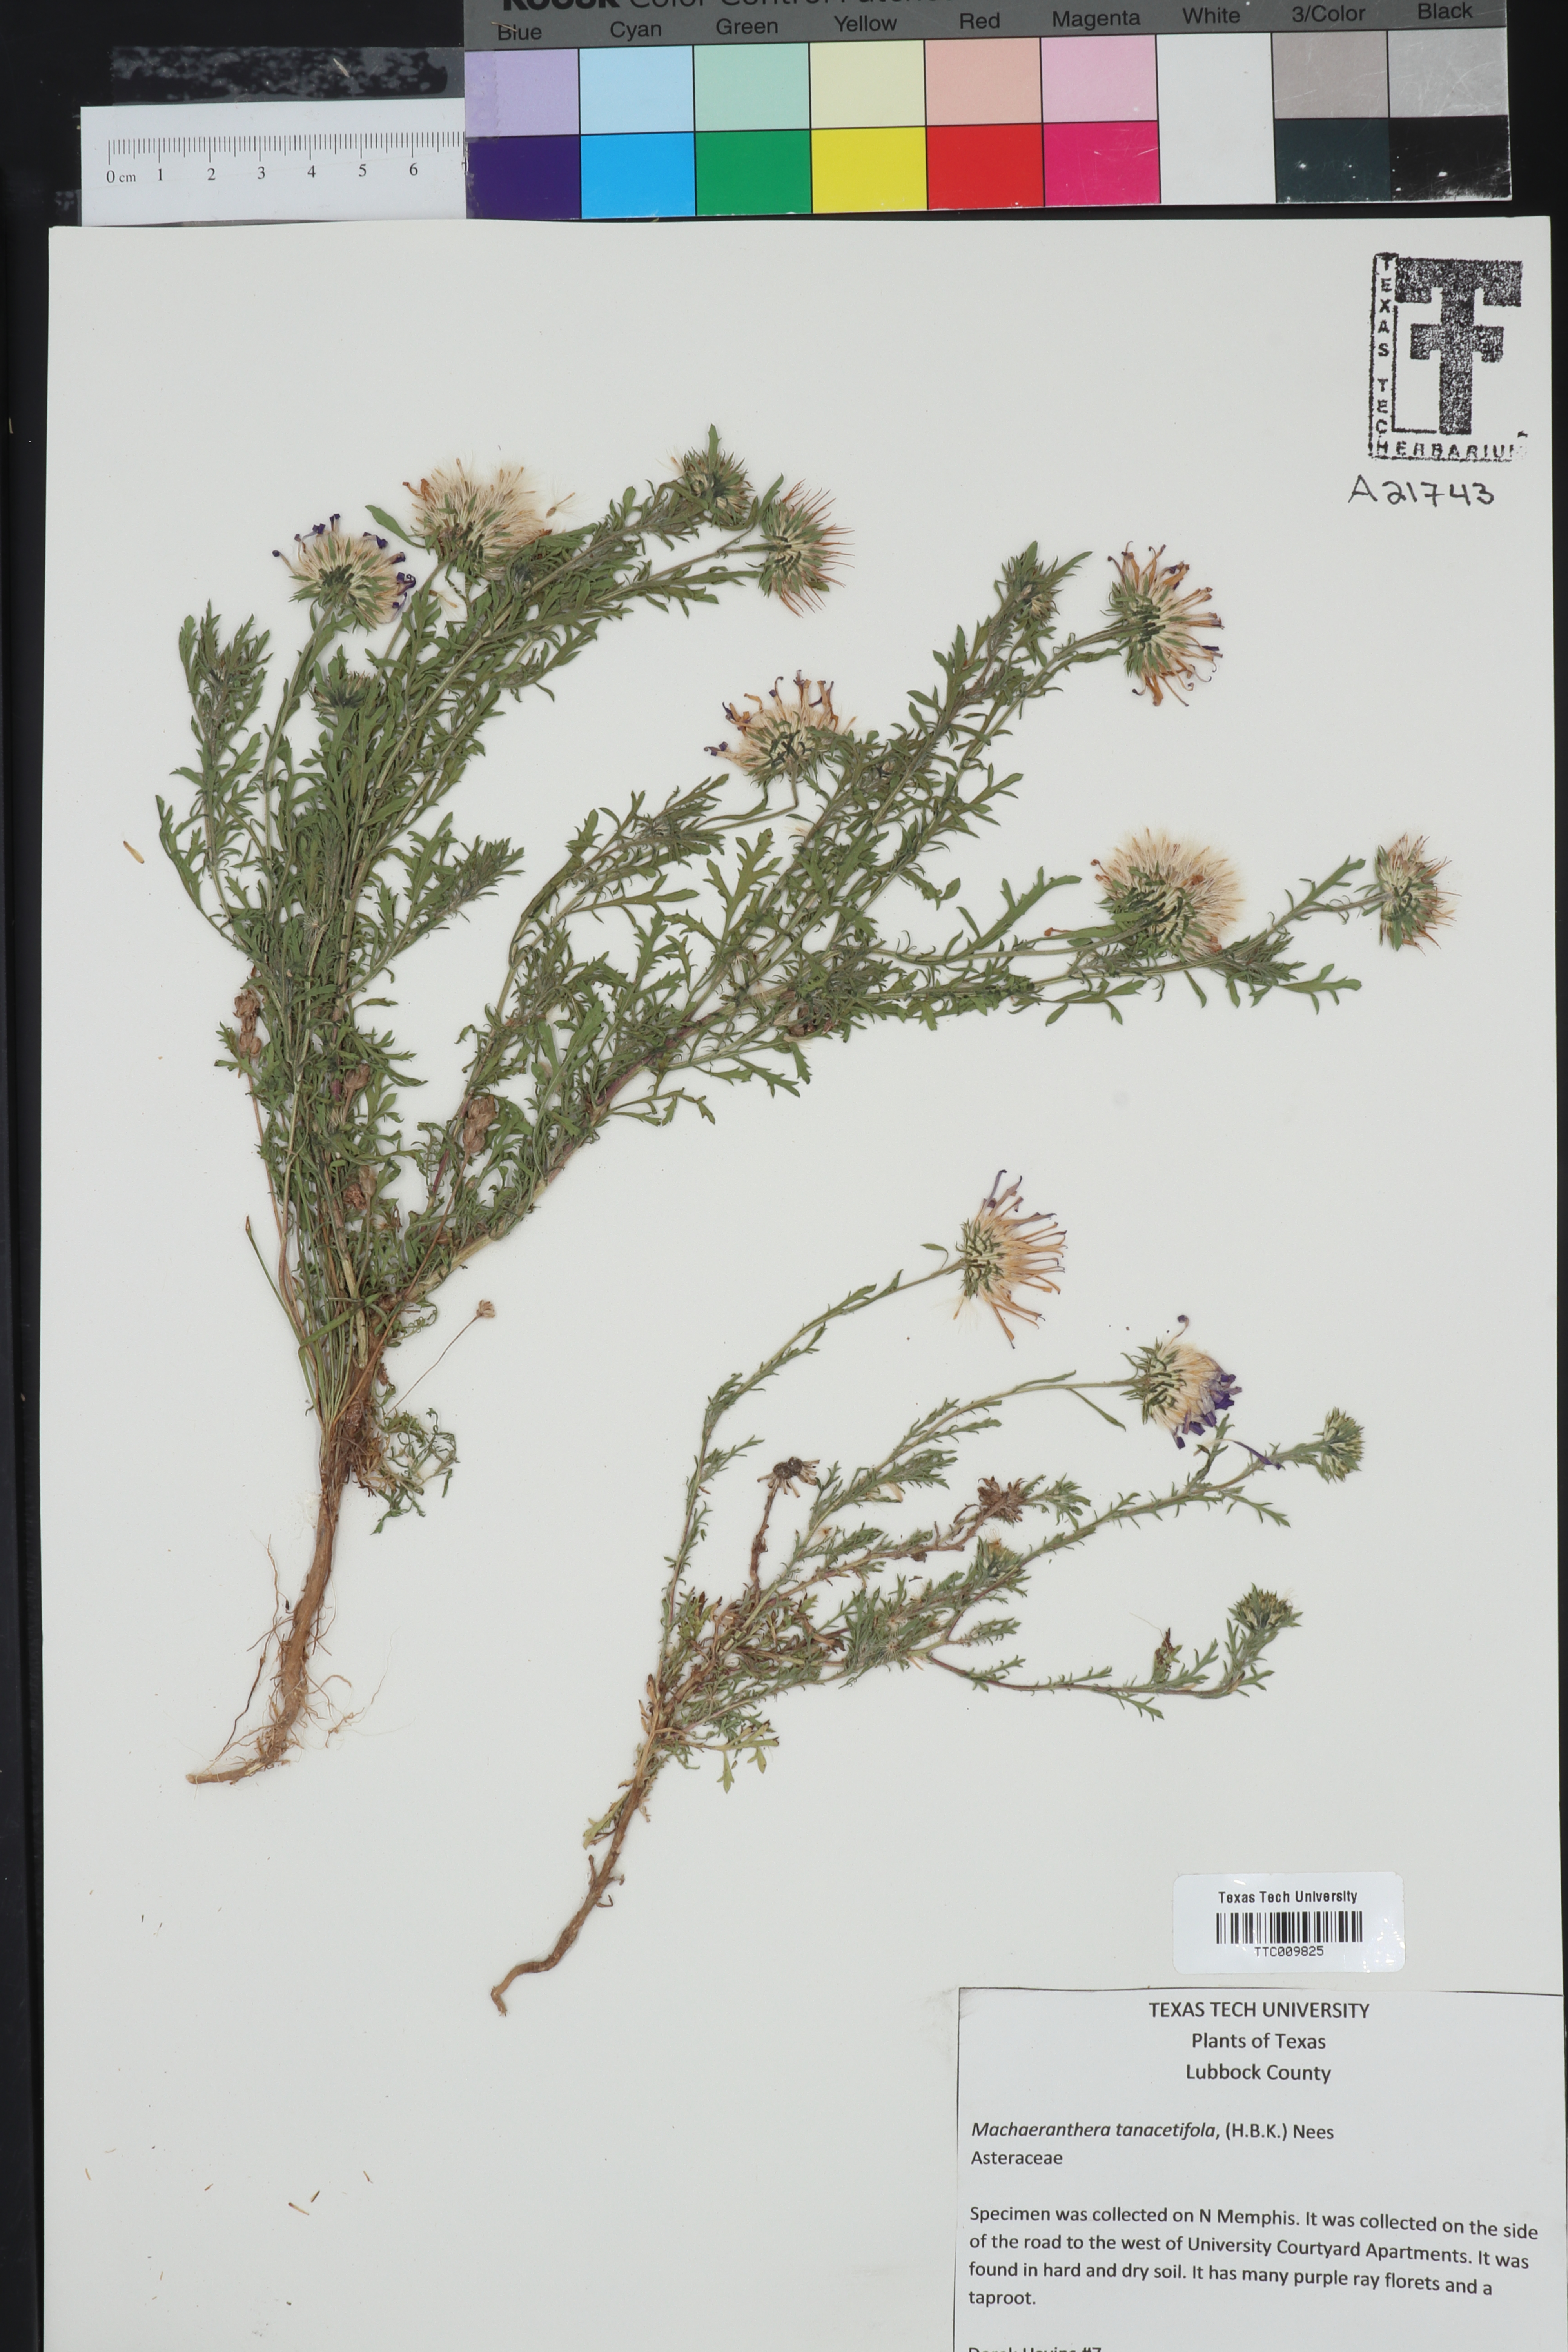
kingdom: Plantae
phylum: Tracheophyta
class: Magnoliopsida
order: Asterales
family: Asteraceae
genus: Machaeranthera
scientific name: Machaeranthera tanacetifolia
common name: Tansy-aster
